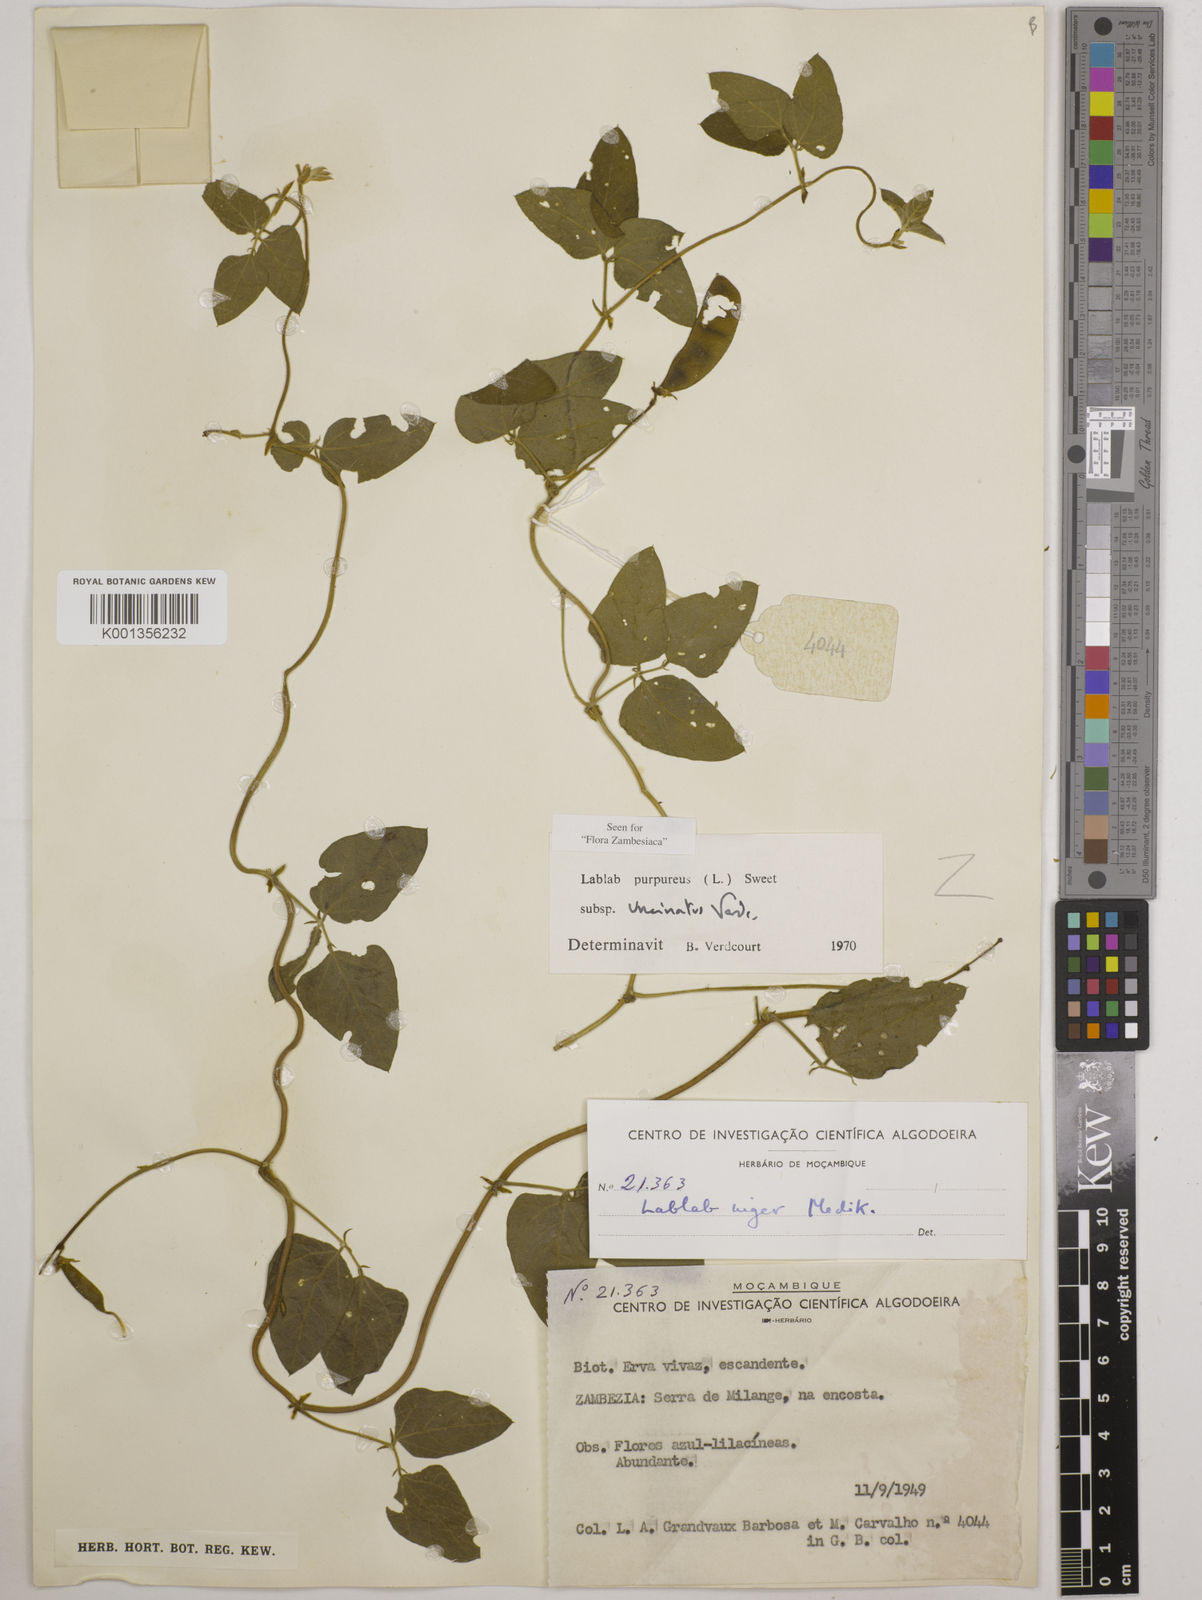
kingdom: Plantae
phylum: Tracheophyta
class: Magnoliopsida
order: Fabales
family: Fabaceae
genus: Lablab
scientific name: Lablab purpureus
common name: Lablab-bean
